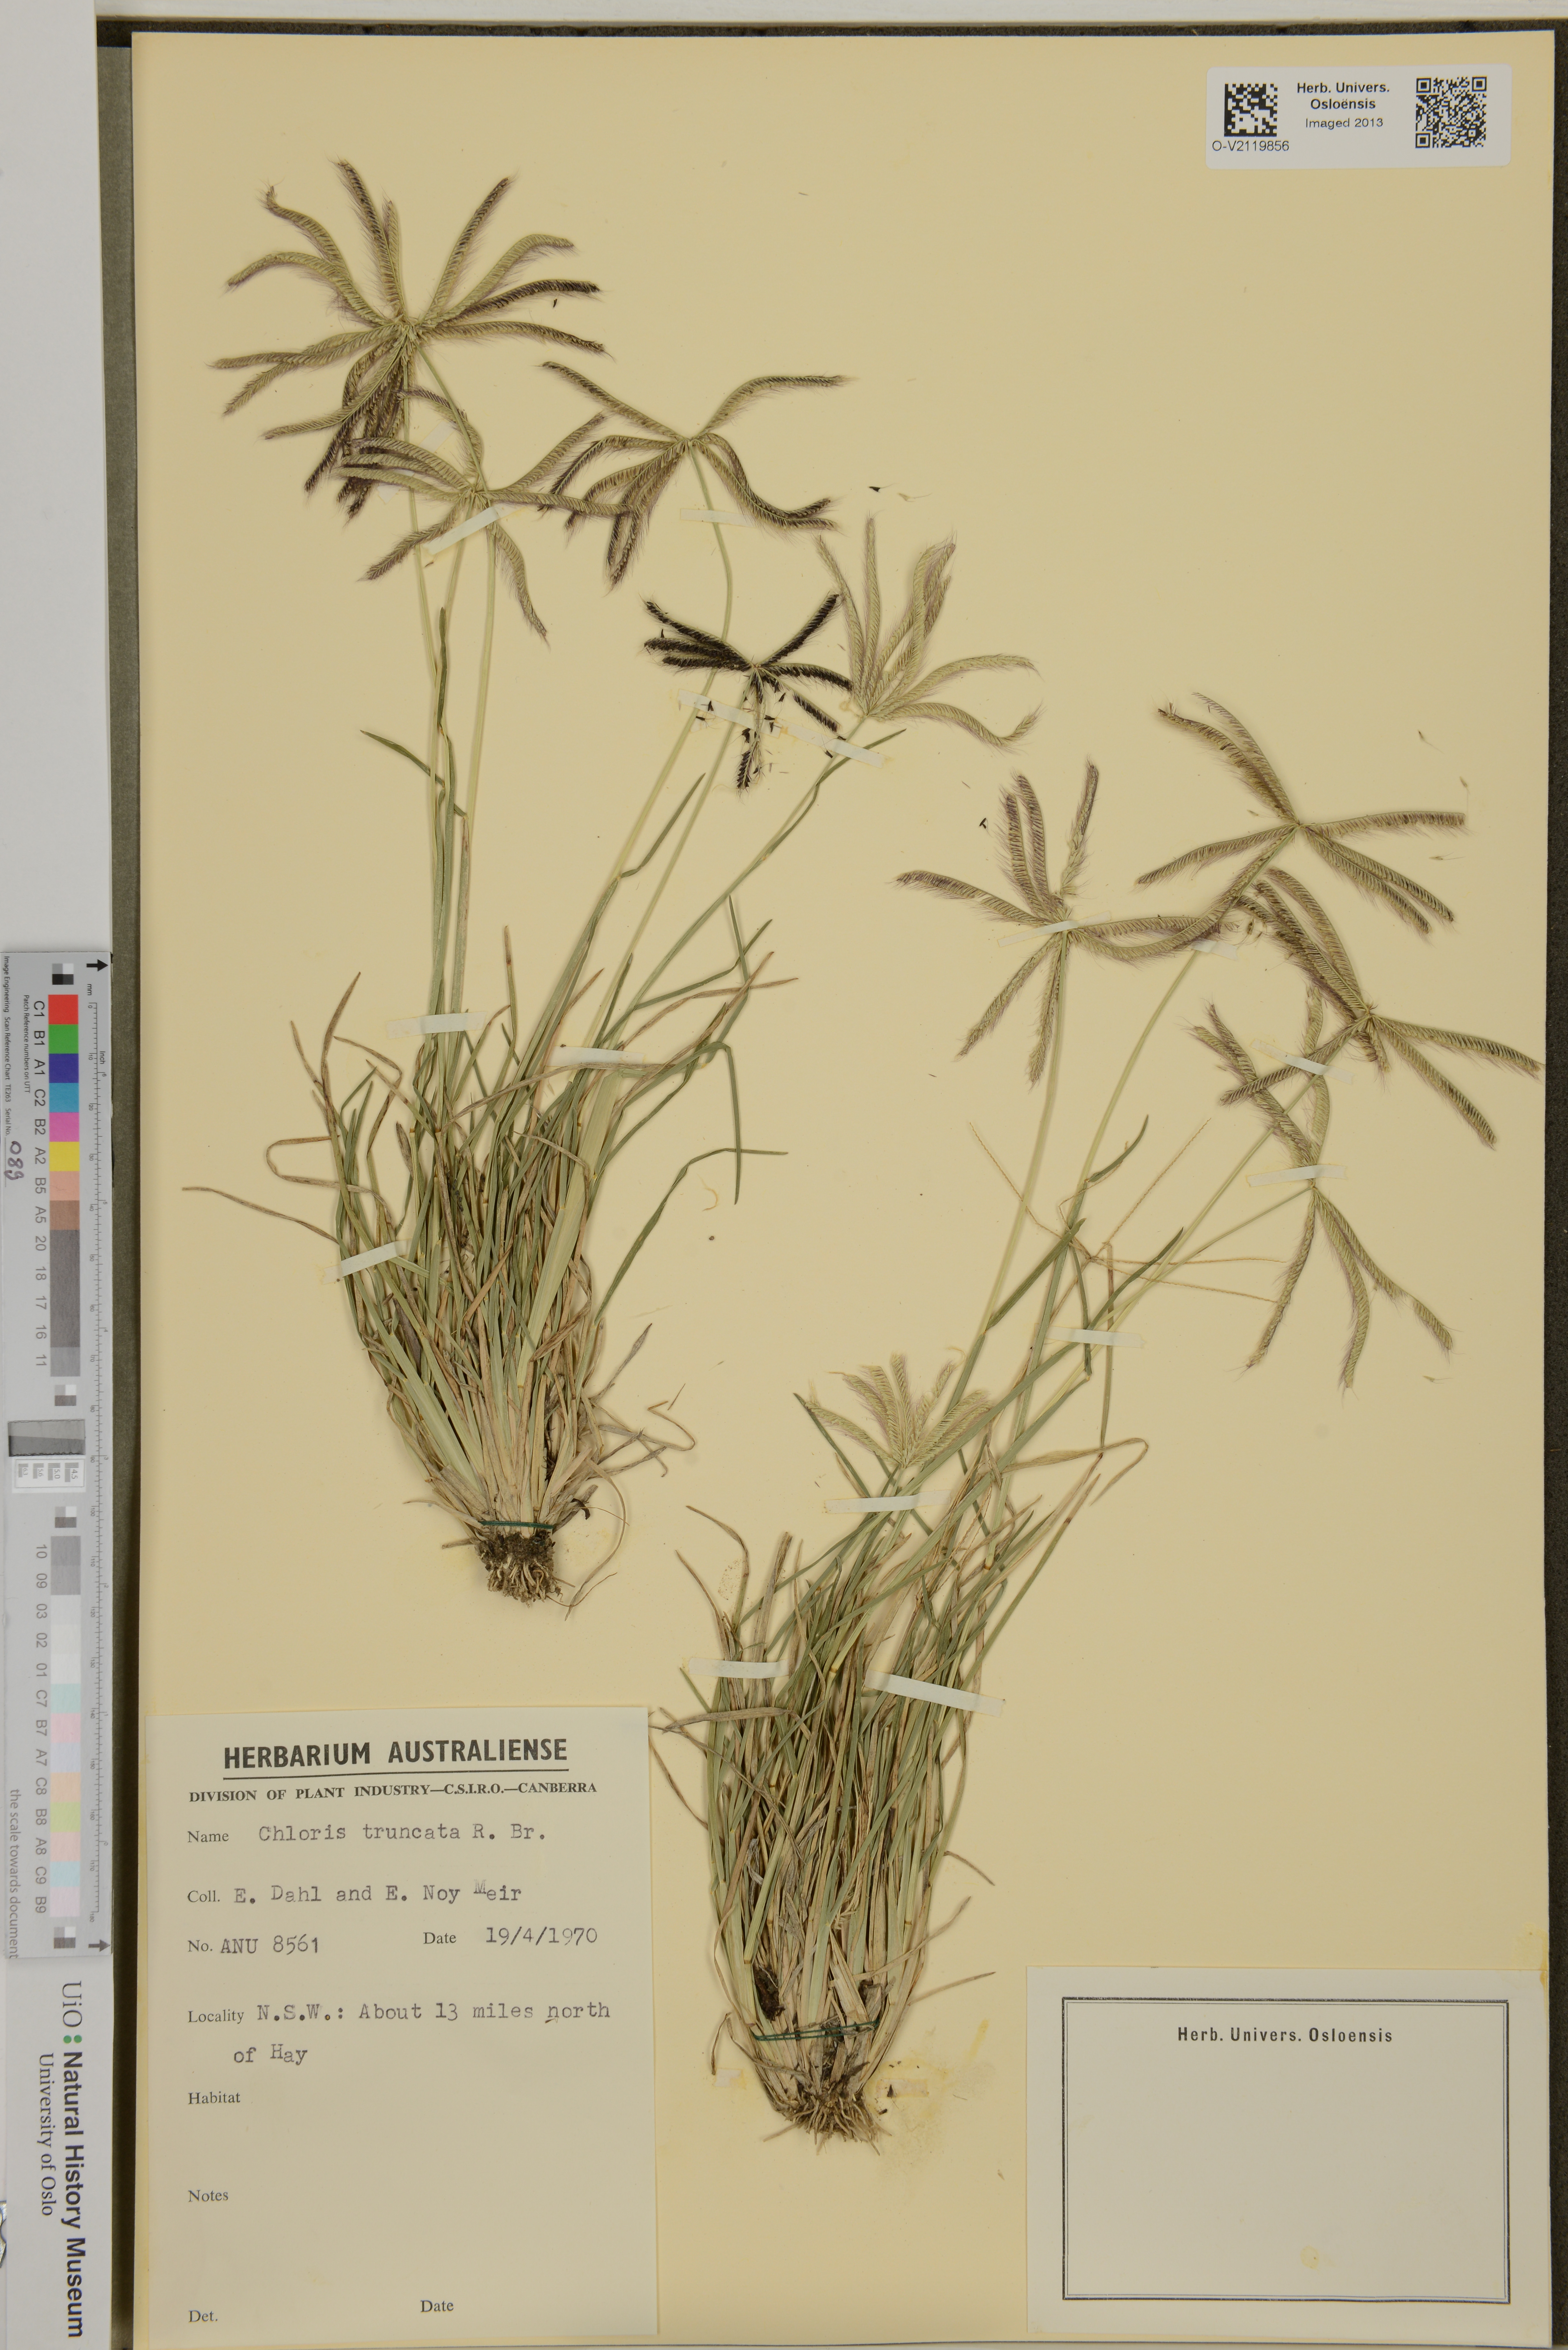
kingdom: Plantae
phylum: Tracheophyta
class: Liliopsida
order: Poales
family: Poaceae
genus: Chloris
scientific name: Chloris truncata
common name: Windmill-grass
